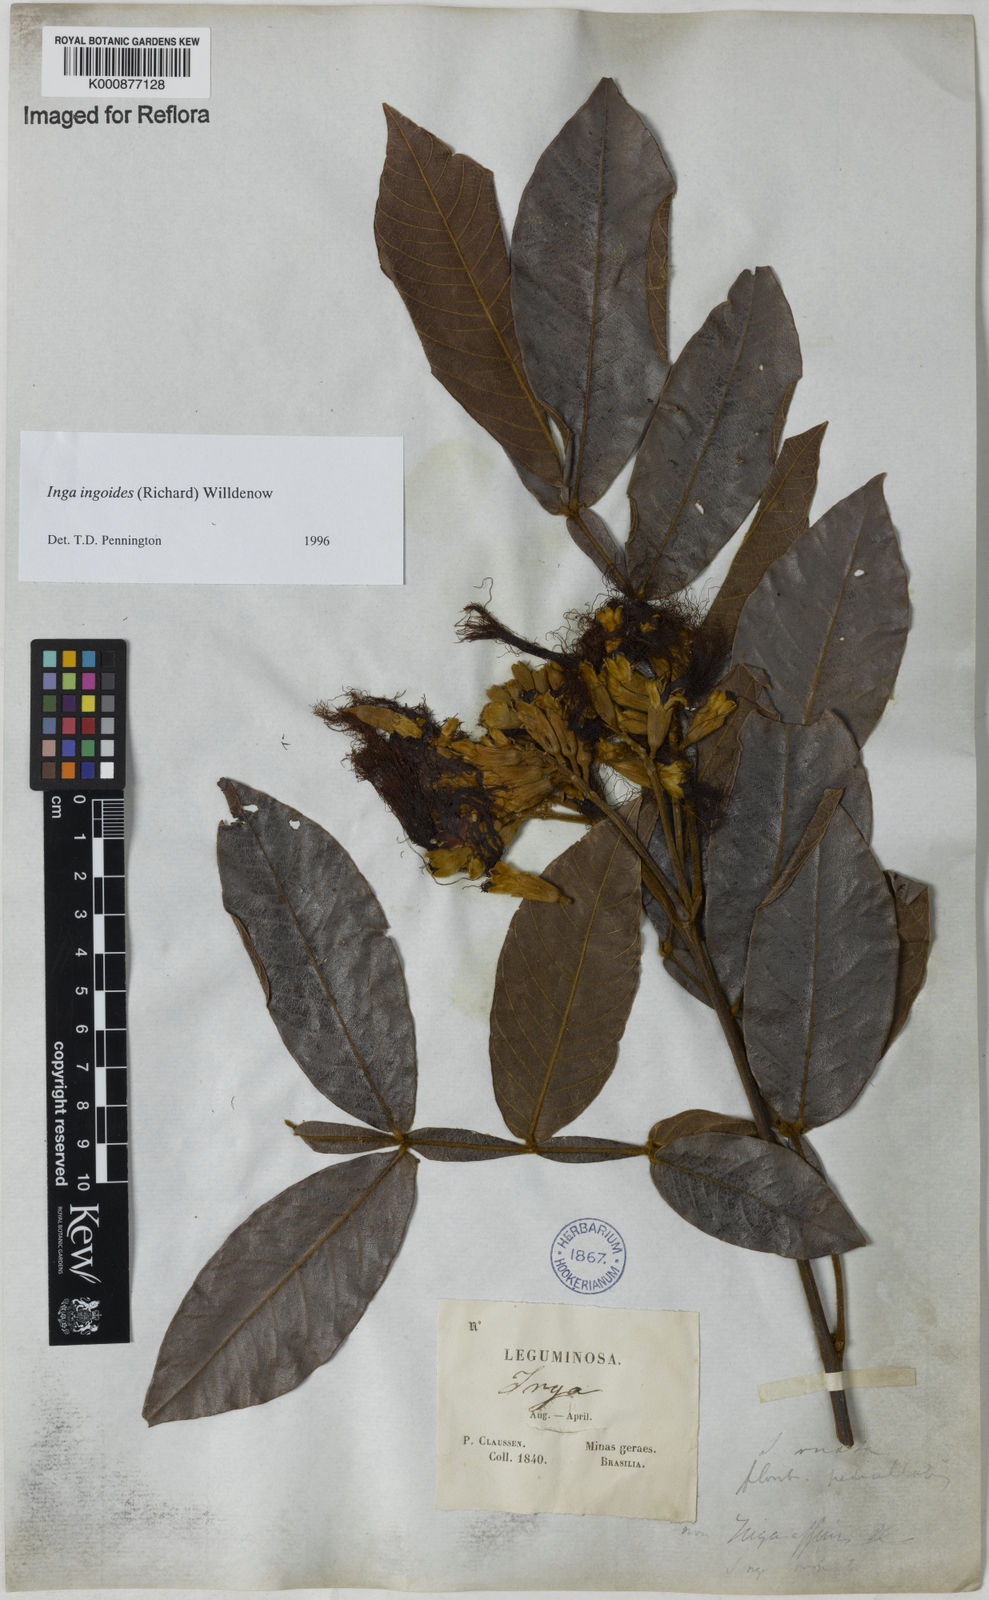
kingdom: Plantae
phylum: Tracheophyta
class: Magnoliopsida
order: Fabales
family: Fabaceae
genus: Inga
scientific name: Inga ingoides
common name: Spanish ash
